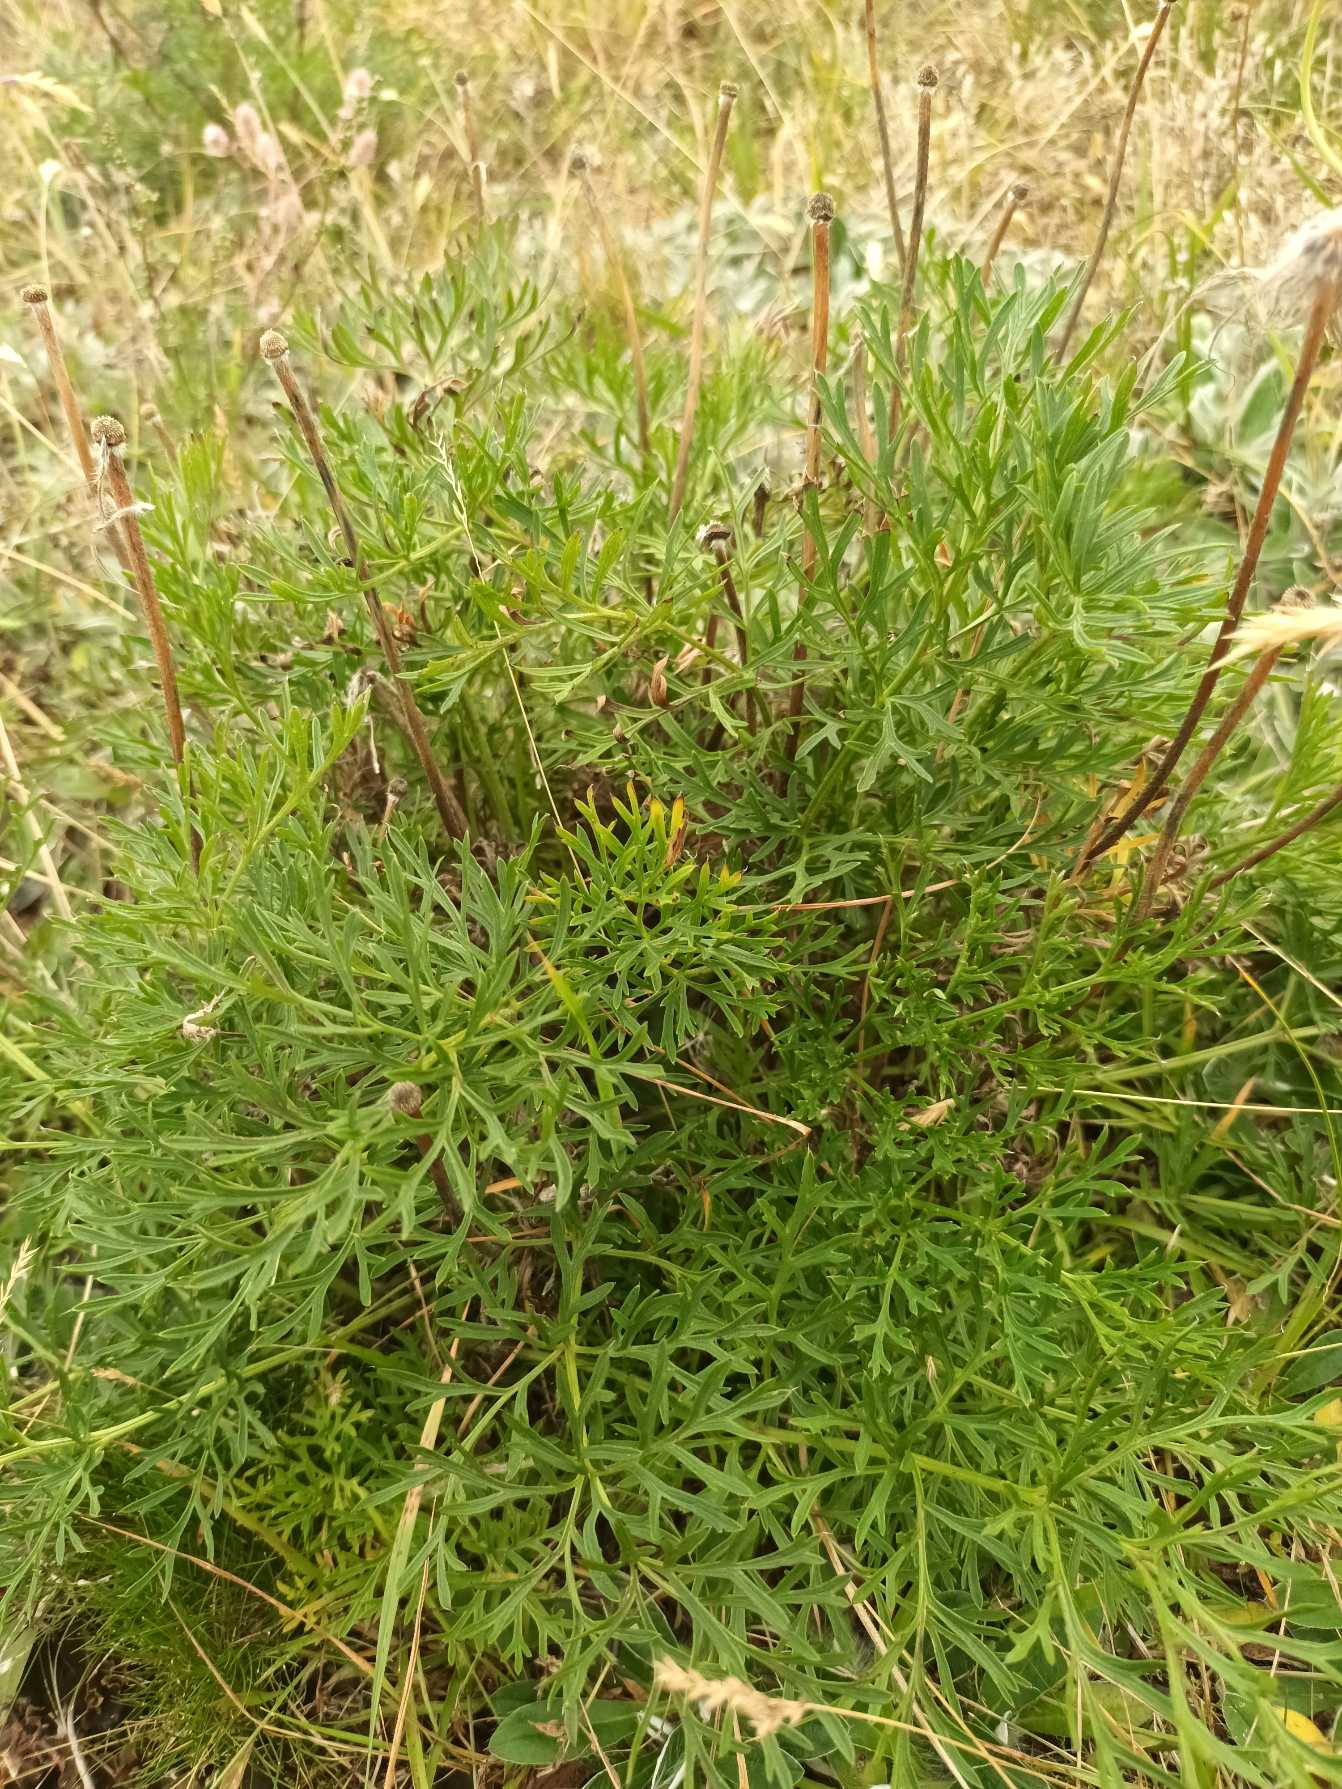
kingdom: Plantae
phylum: Tracheophyta
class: Magnoliopsida
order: Ranunculales
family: Ranunculaceae
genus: Pulsatilla
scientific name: Pulsatilla pratensis
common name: Nikkende kobjælde
